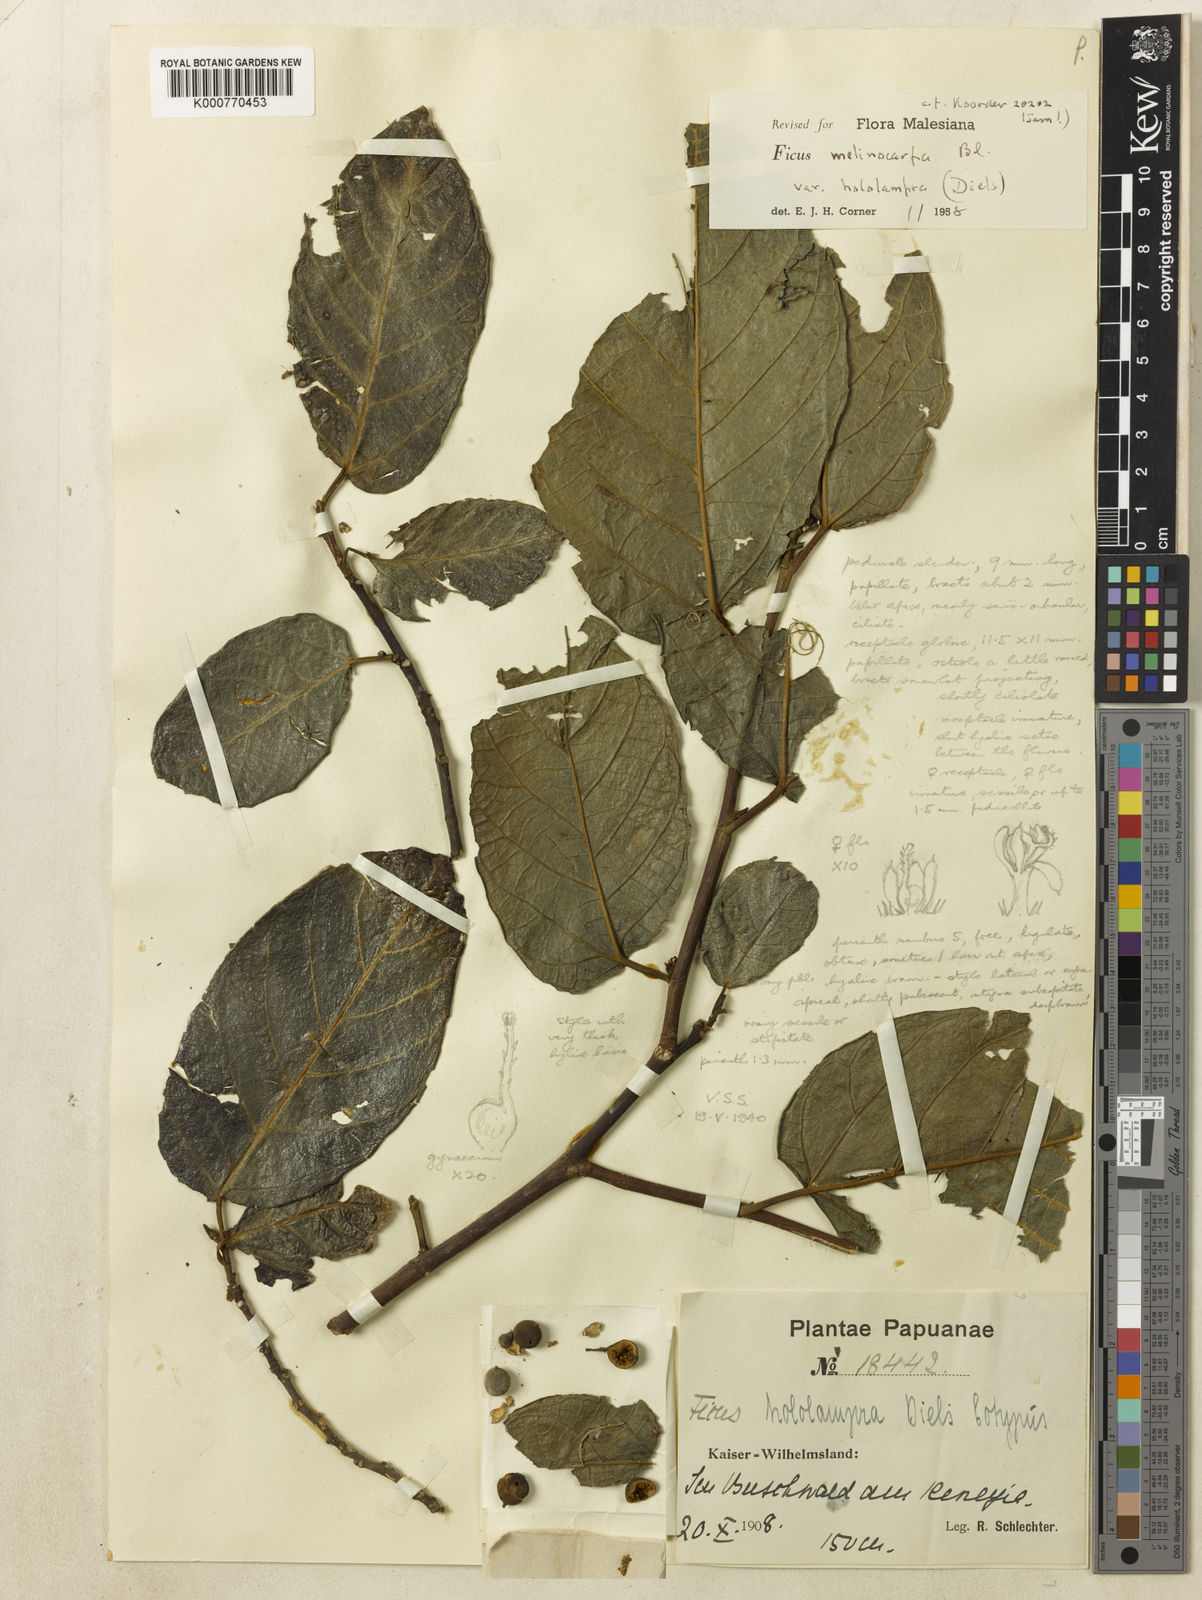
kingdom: Plantae
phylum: Tracheophyta
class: Magnoliopsida
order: Rosales
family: Moraceae
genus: Ficus
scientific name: Ficus melinocarpa
